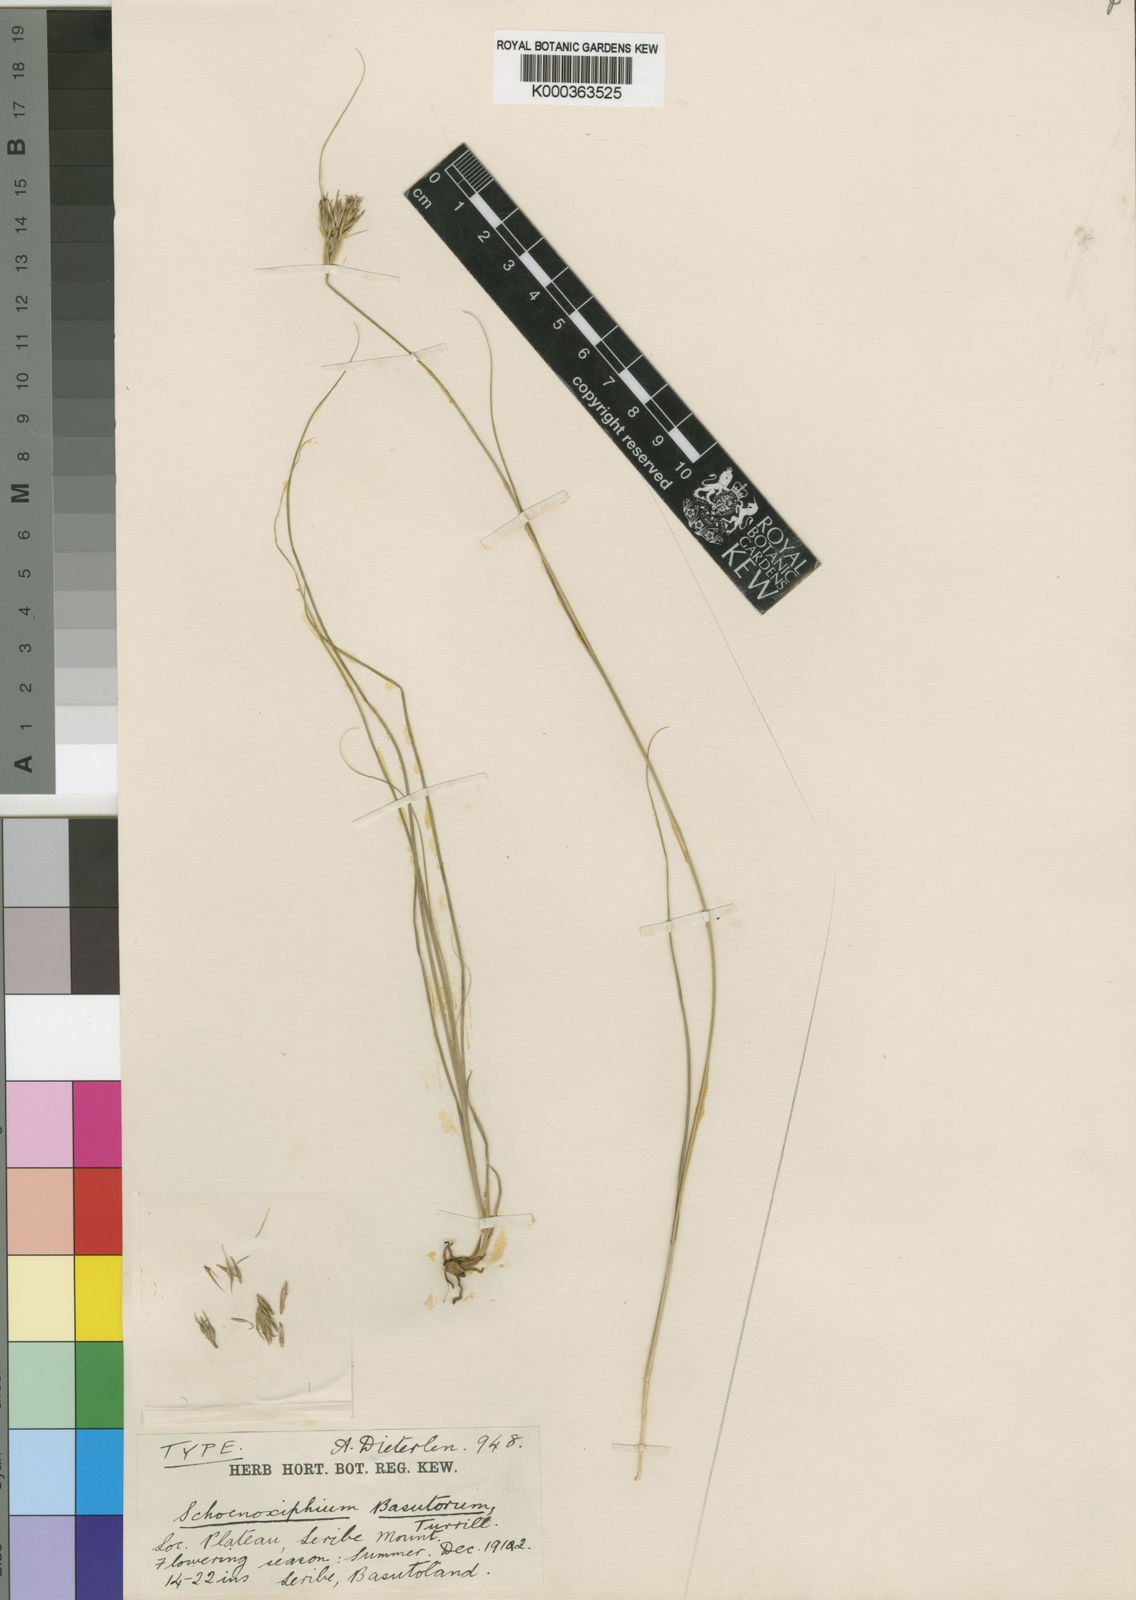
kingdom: Plantae
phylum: Tracheophyta
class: Liliopsida
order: Poales
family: Cyperaceae
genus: Carex
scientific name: Carex basutorum
